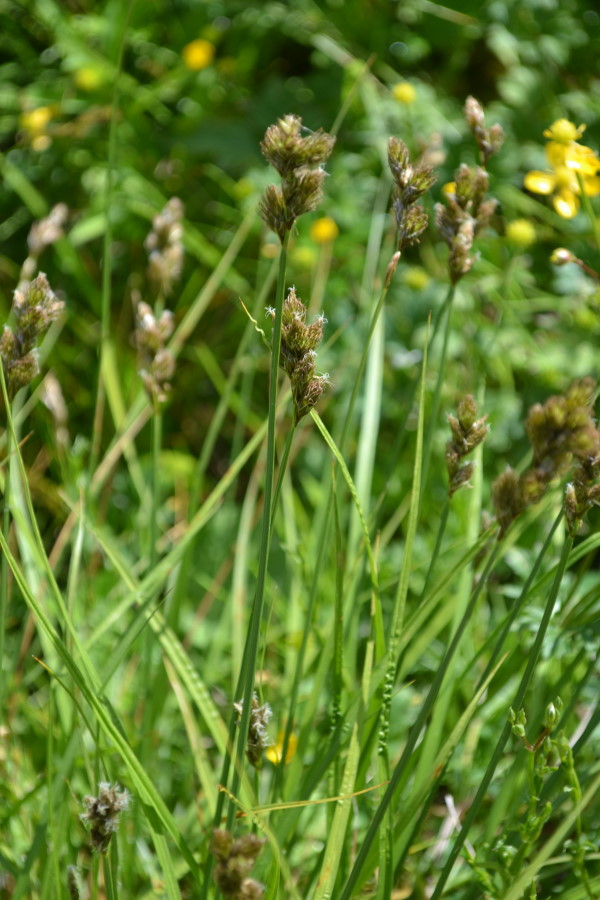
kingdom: Plantae
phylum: Tracheophyta
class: Liliopsida
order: Poales
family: Cyperaceae
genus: Carex
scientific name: Carex leporina
